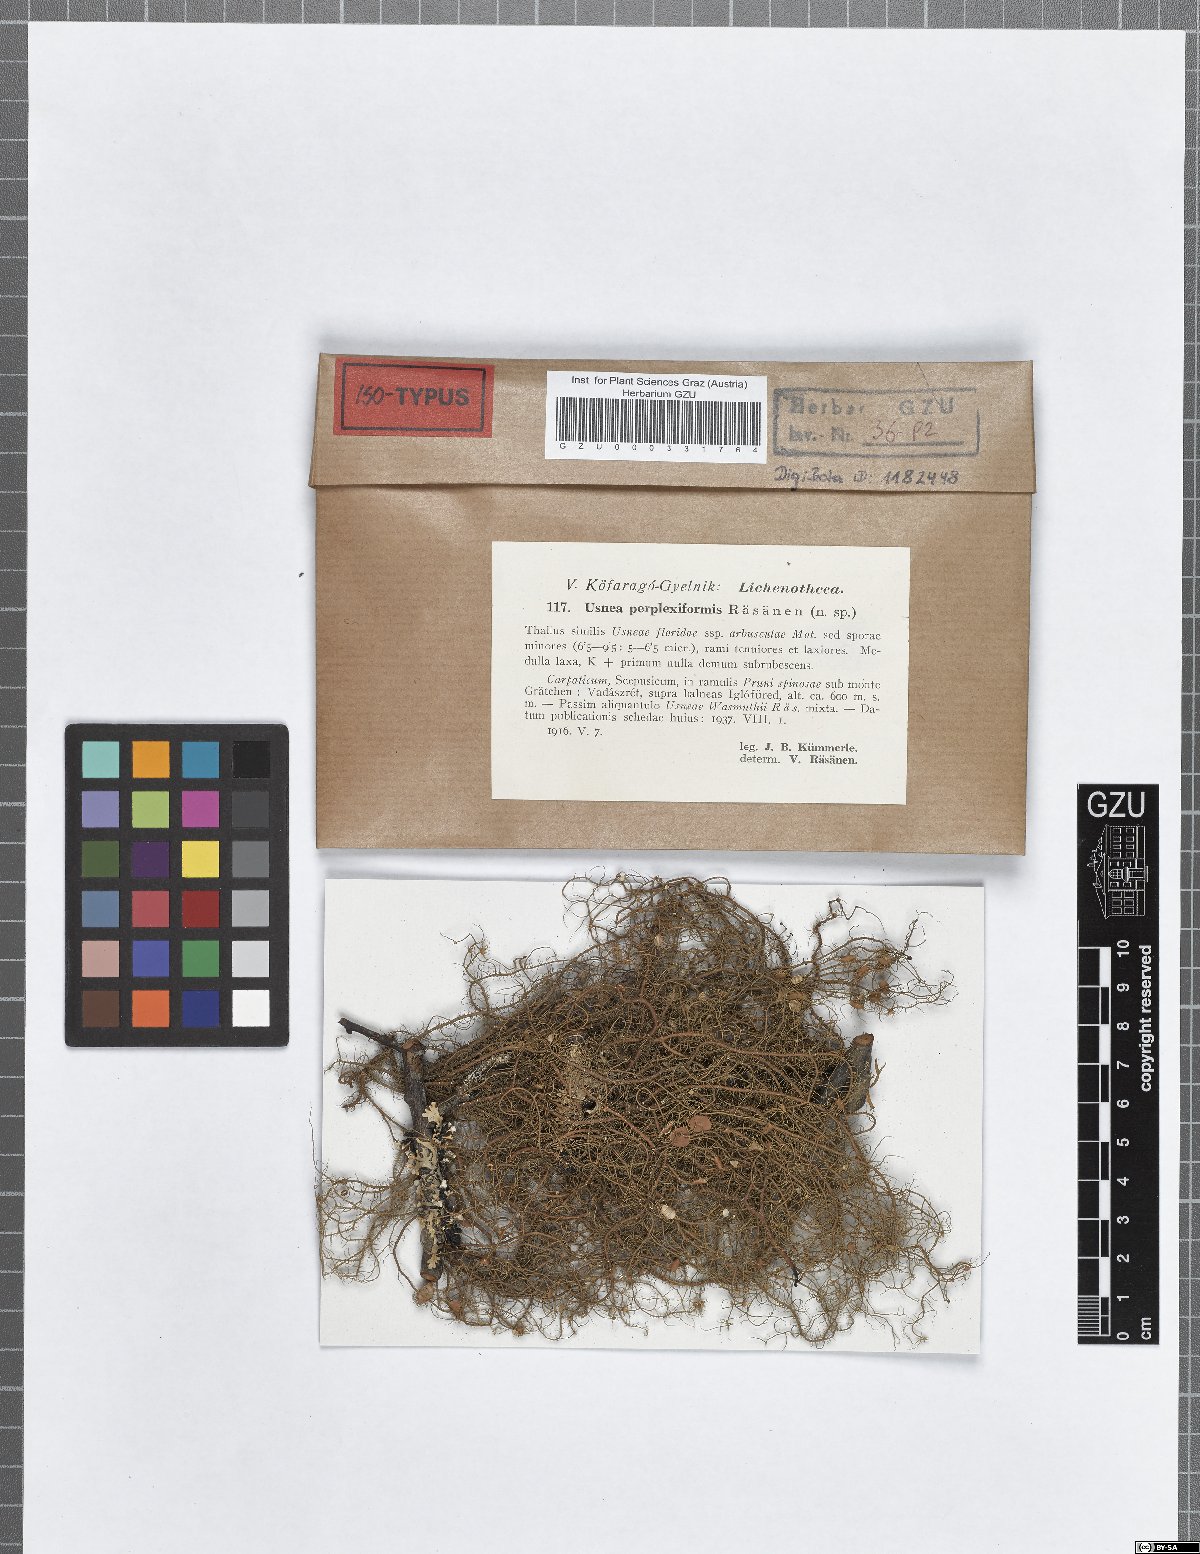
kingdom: Fungi
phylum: Ascomycota
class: Lecanoromycetes
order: Lecanorales
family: Parmeliaceae
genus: Usnea
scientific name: Usnea perplexiformis
